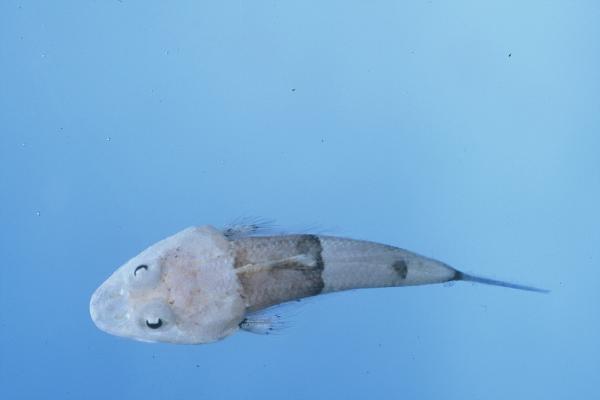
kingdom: Animalia
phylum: Chordata
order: Scorpaeniformes
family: Platycephalidae
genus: Onigocia
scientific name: Onigocia oligolepis
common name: Dwarf flathead
